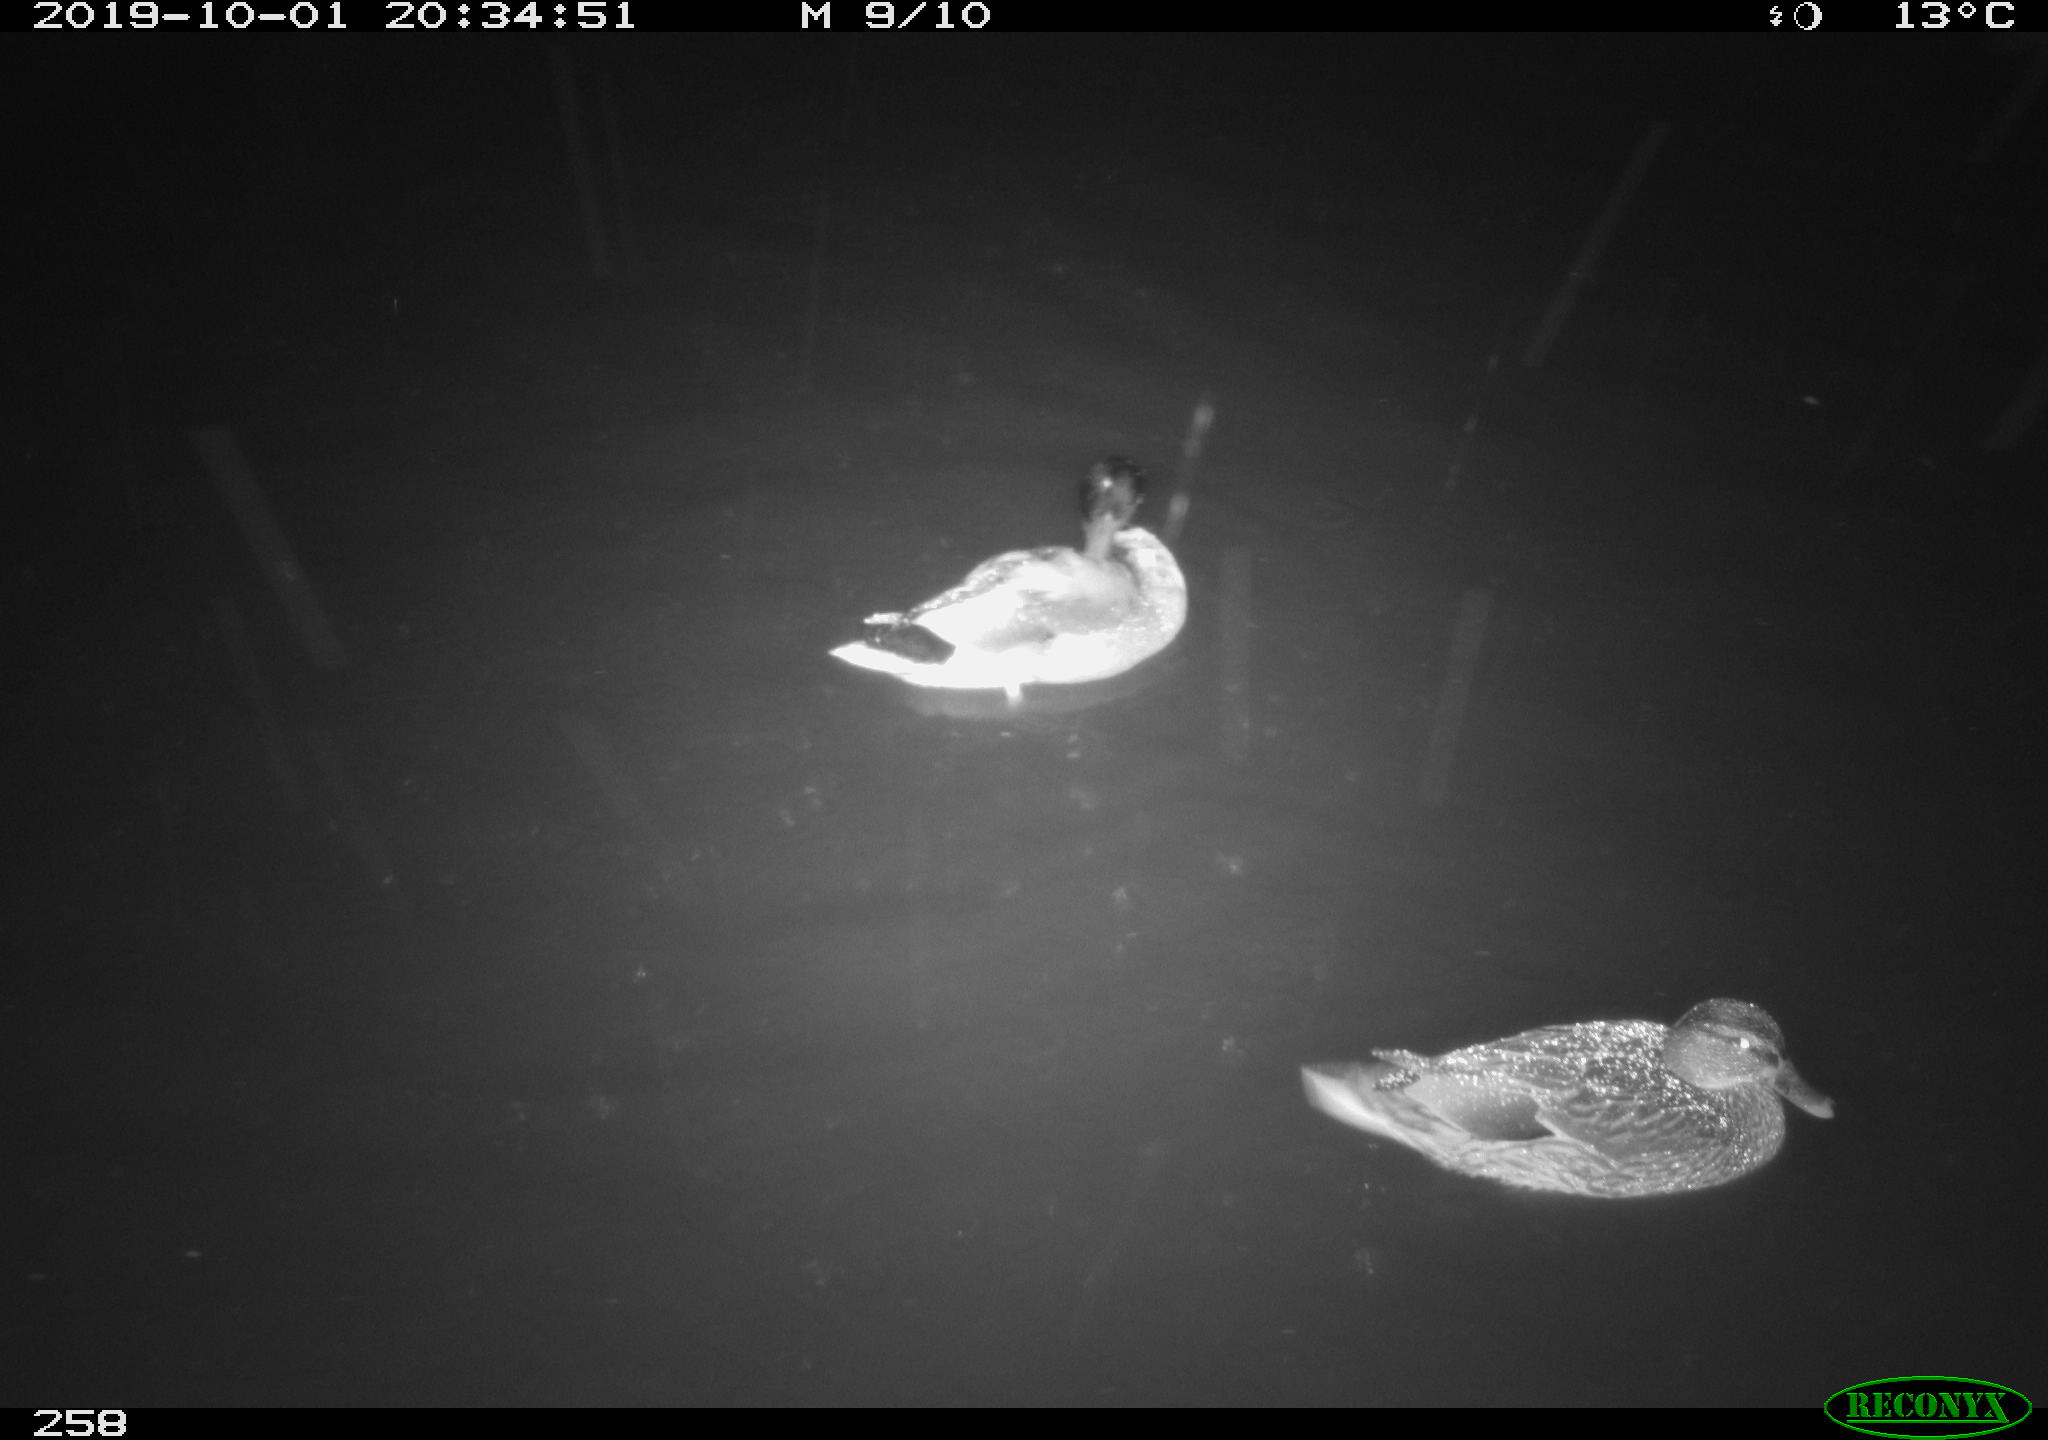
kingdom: Animalia
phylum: Chordata
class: Aves
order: Anseriformes
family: Anatidae
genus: Anas
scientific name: Anas platyrhynchos
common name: Mallard
